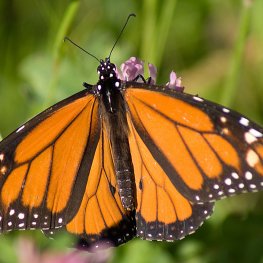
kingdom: Animalia
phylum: Arthropoda
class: Insecta
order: Lepidoptera
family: Nymphalidae
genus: Danaus
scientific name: Danaus plexippus
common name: Monarch
